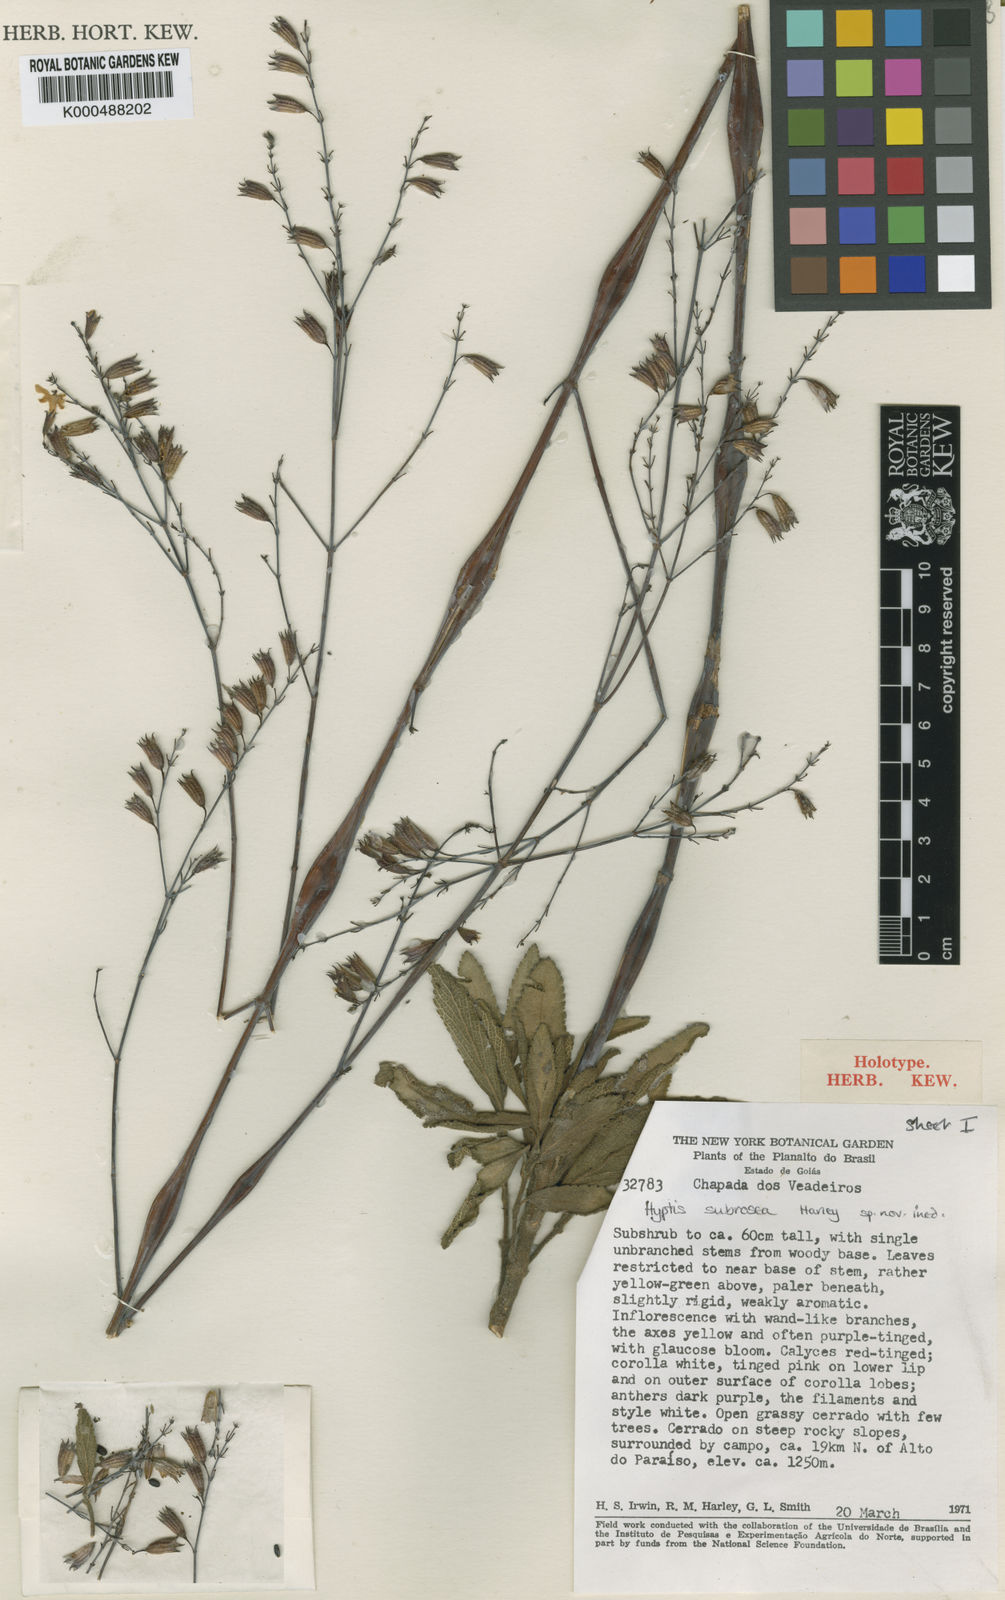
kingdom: Plantae
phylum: Tracheophyta
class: Magnoliopsida
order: Lamiales
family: Lamiaceae
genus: Hypenia
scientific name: Hypenia subrosea
